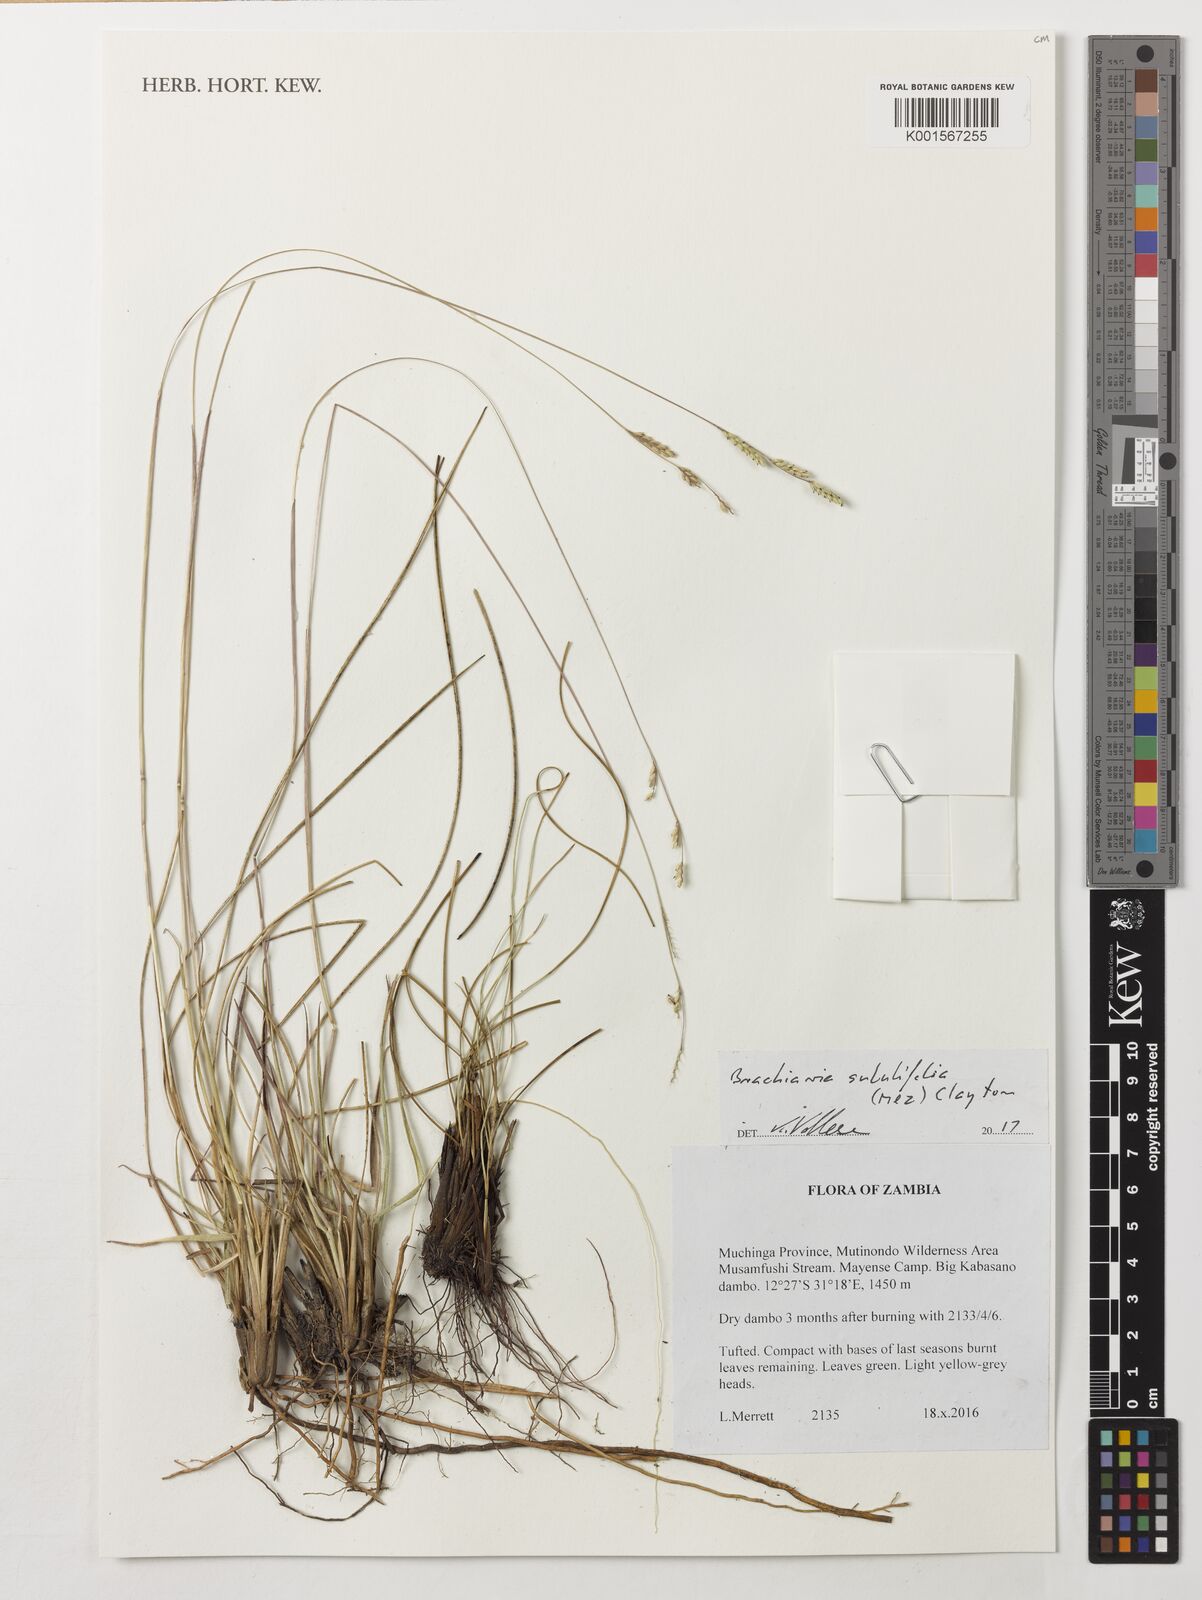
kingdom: Plantae
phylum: Tracheophyta
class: Liliopsida
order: Poales
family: Poaceae
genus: Urochloa
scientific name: Urochloa subulifolia
